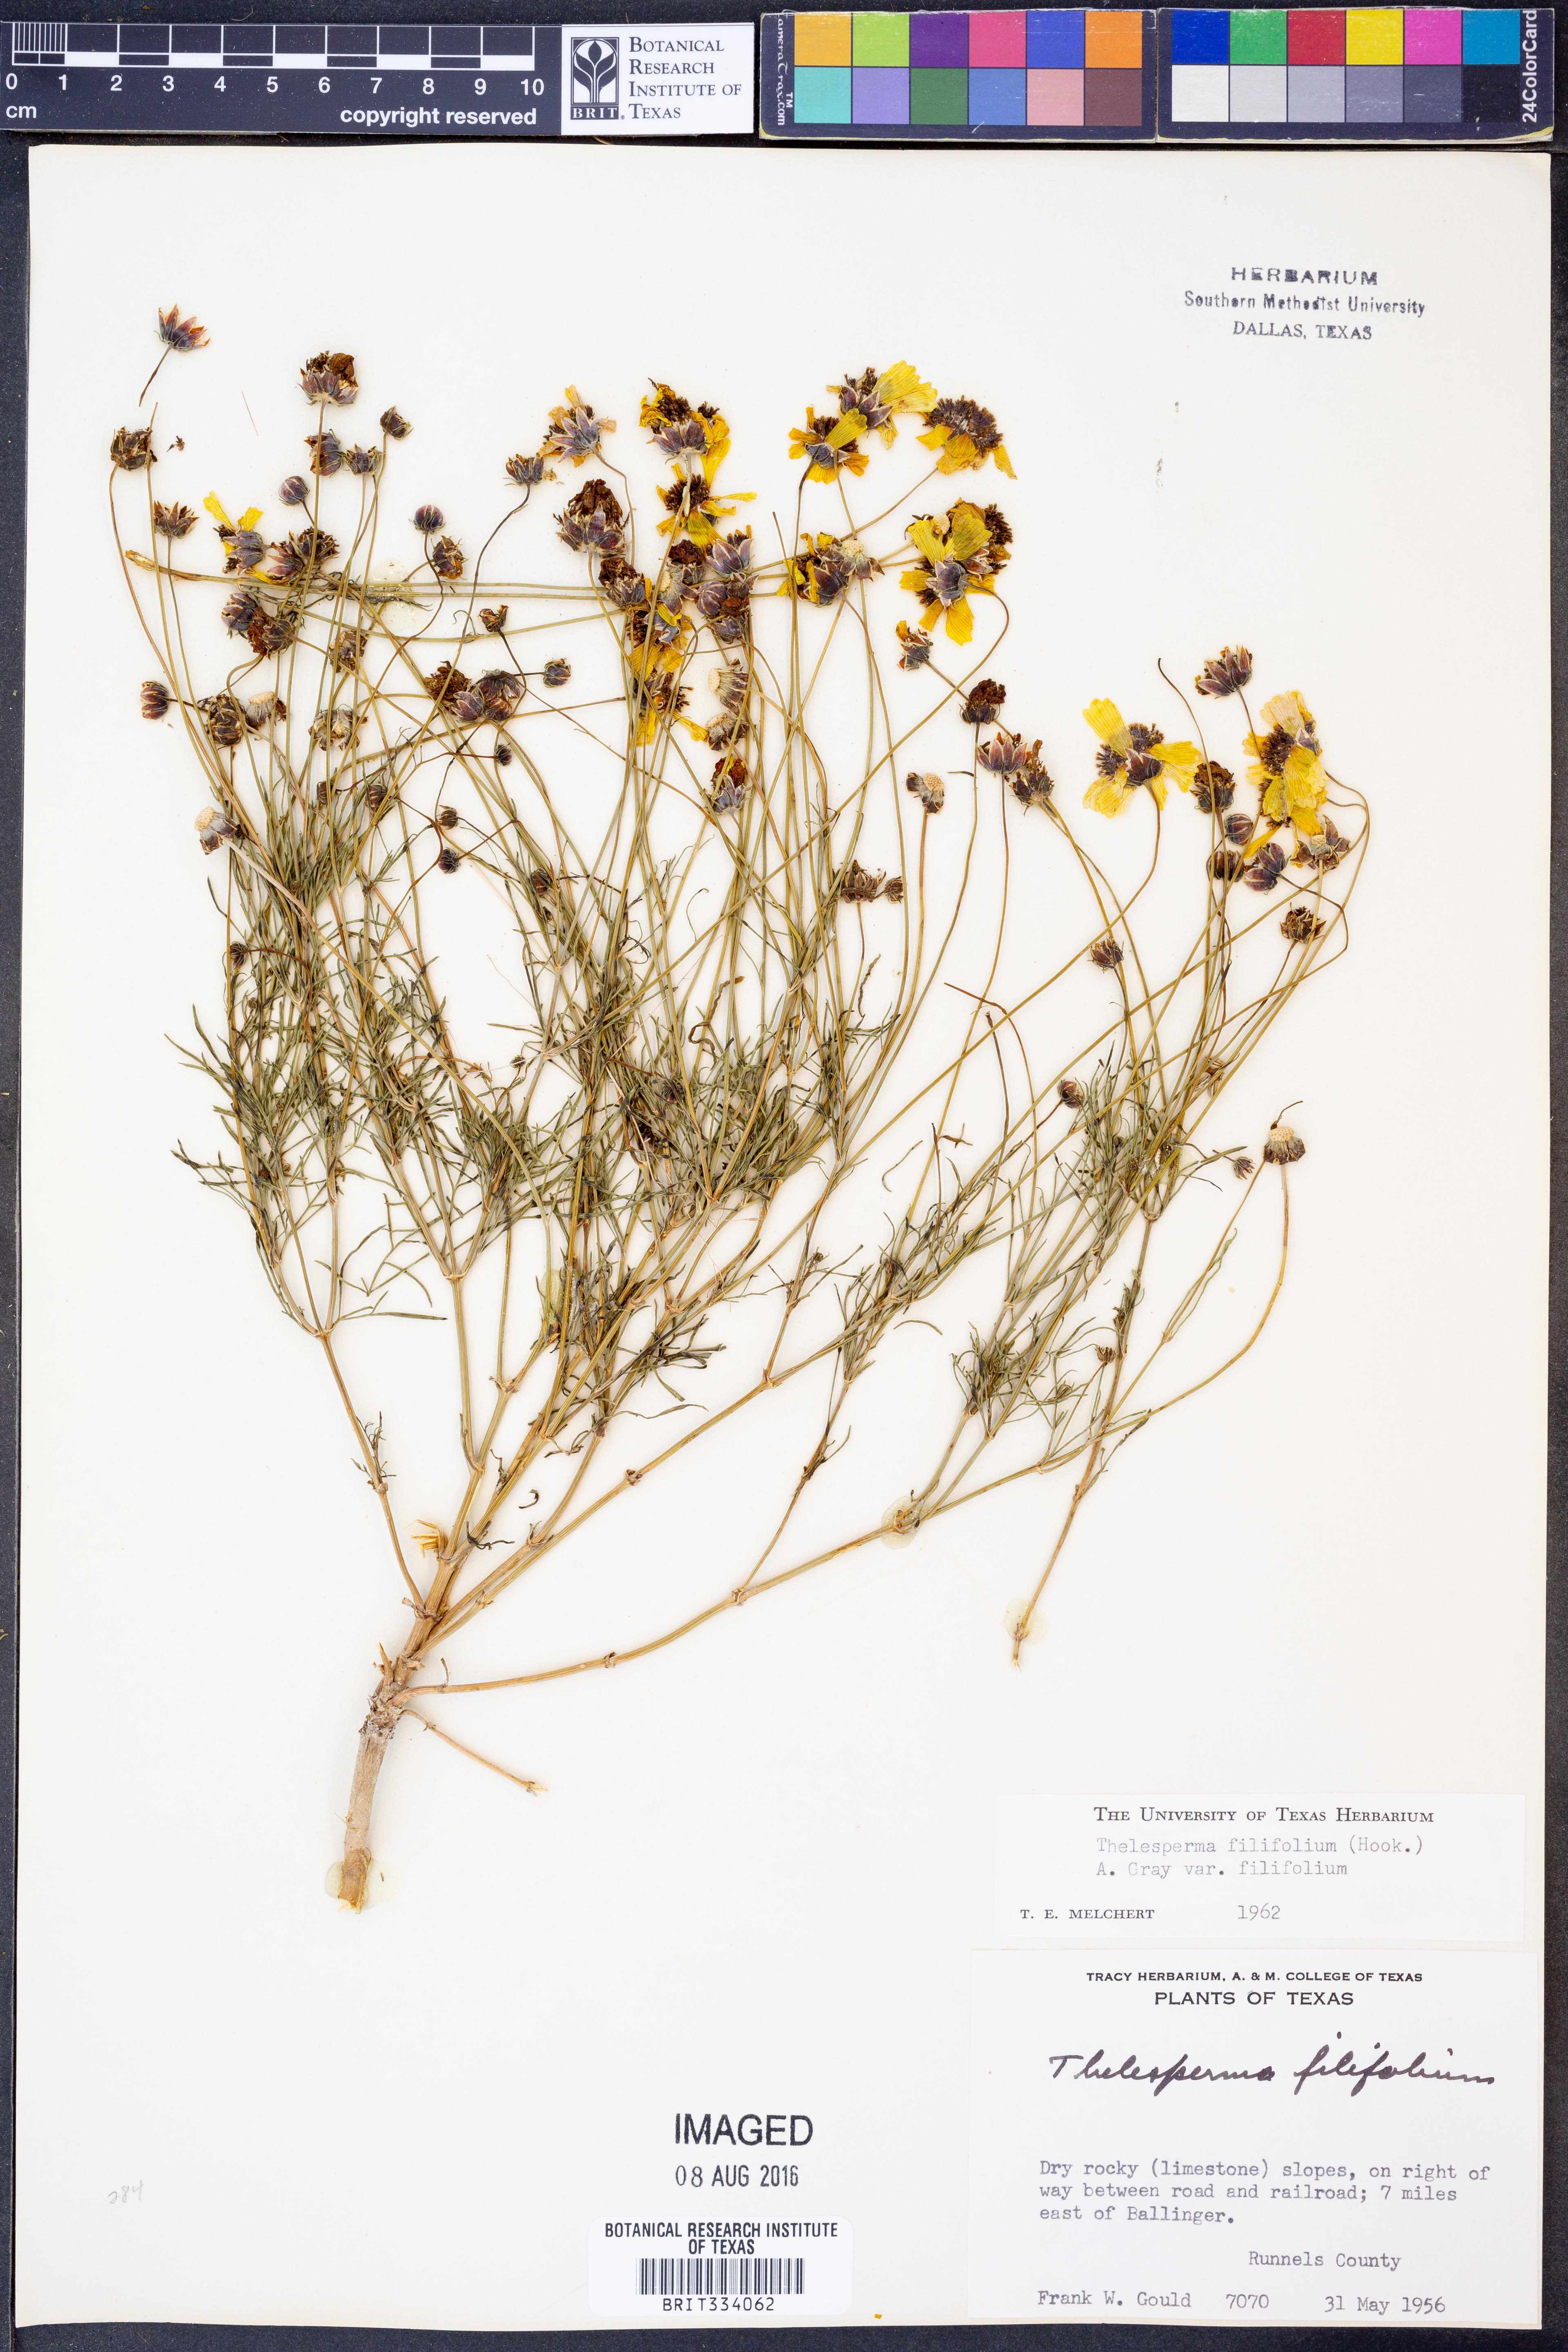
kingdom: Plantae
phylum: Tracheophyta
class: Magnoliopsida
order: Asterales
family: Asteraceae
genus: Thelesperma
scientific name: Thelesperma filifolium
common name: Stiff greenthread
